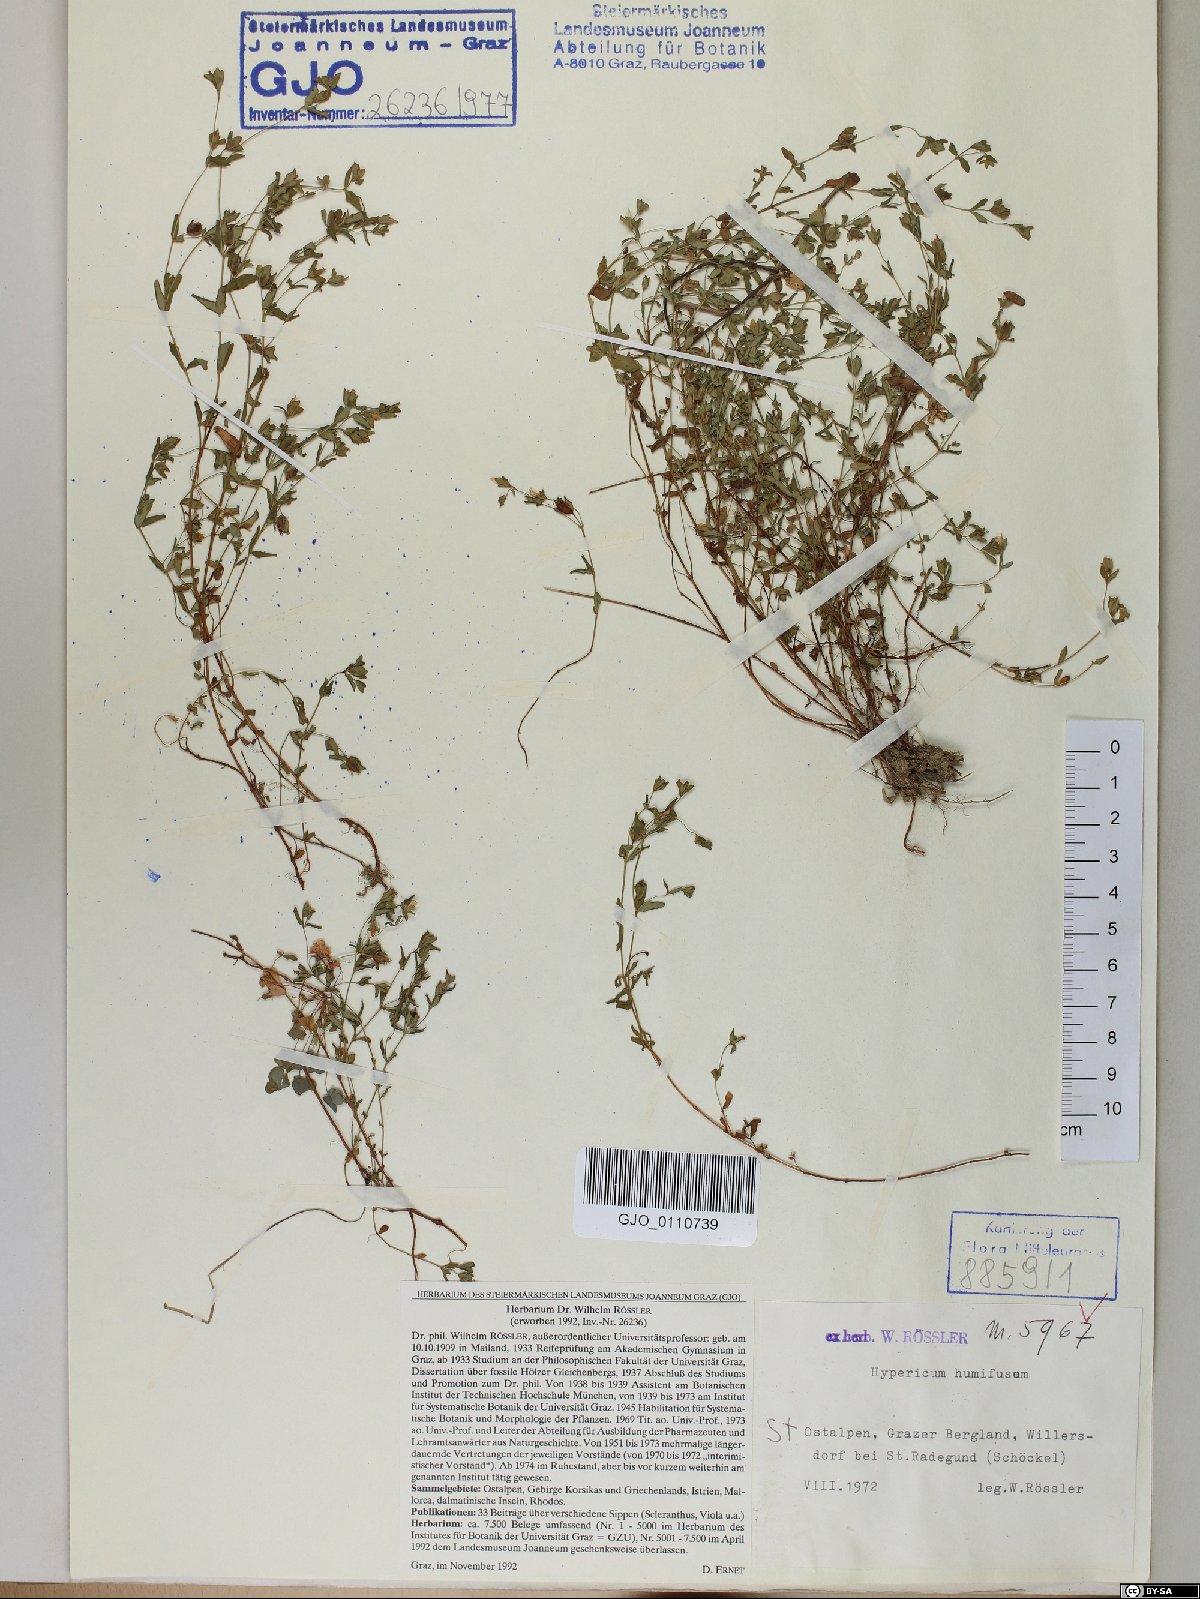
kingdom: Plantae
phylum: Tracheophyta
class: Magnoliopsida
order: Malpighiales
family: Hypericaceae
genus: Hypericum
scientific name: Hypericum humifusum
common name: Trailing st. john's-wort
